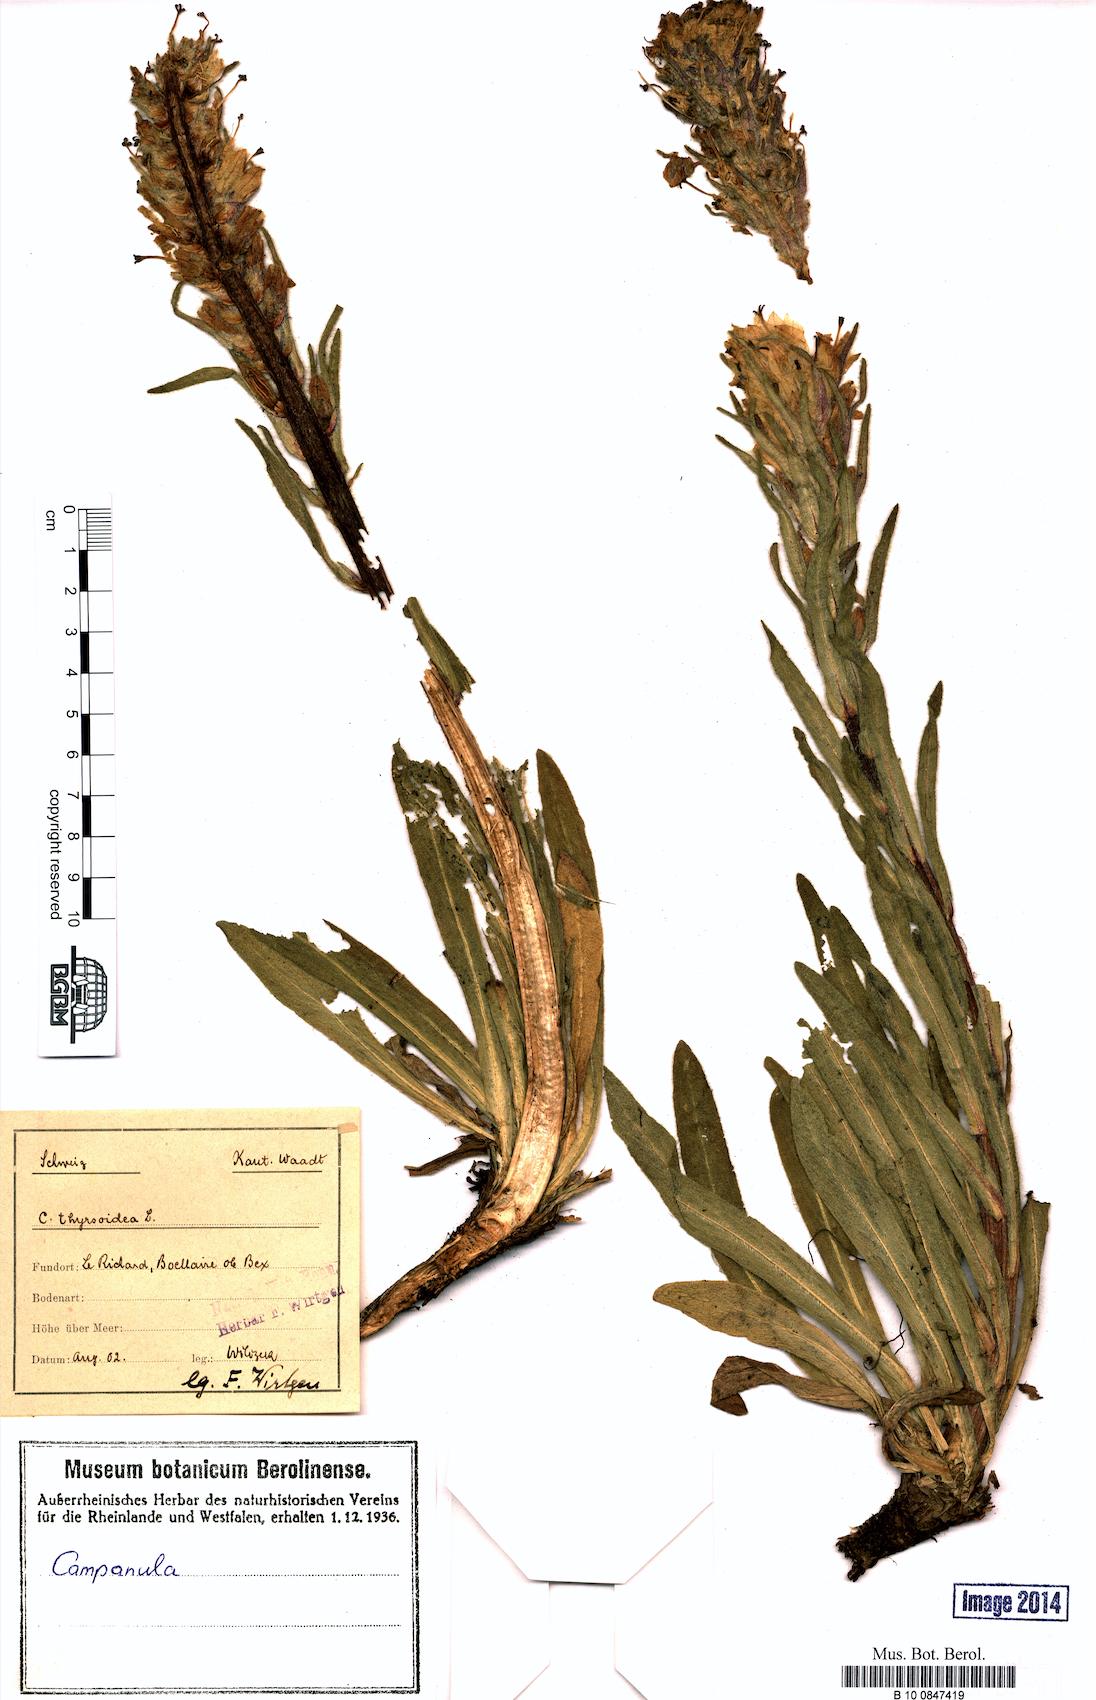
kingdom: Plantae
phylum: Tracheophyta
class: Magnoliopsida
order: Asterales
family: Campanulaceae
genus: Campanula
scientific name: Campanula thyrsoides
